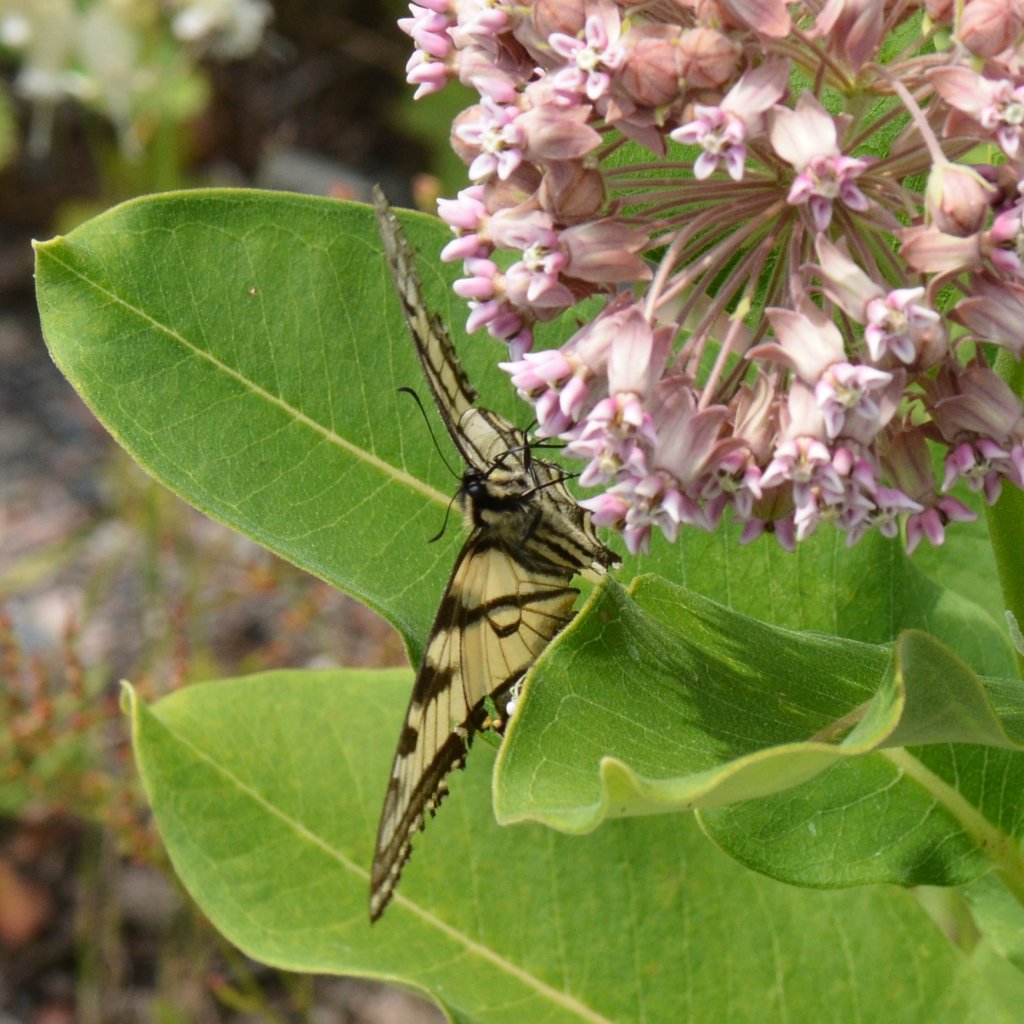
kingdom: Animalia
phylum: Arthropoda
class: Insecta
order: Lepidoptera
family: Papilionidae
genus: Pterourus
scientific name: Pterourus canadensis
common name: Canadian Tiger Swallowtail
